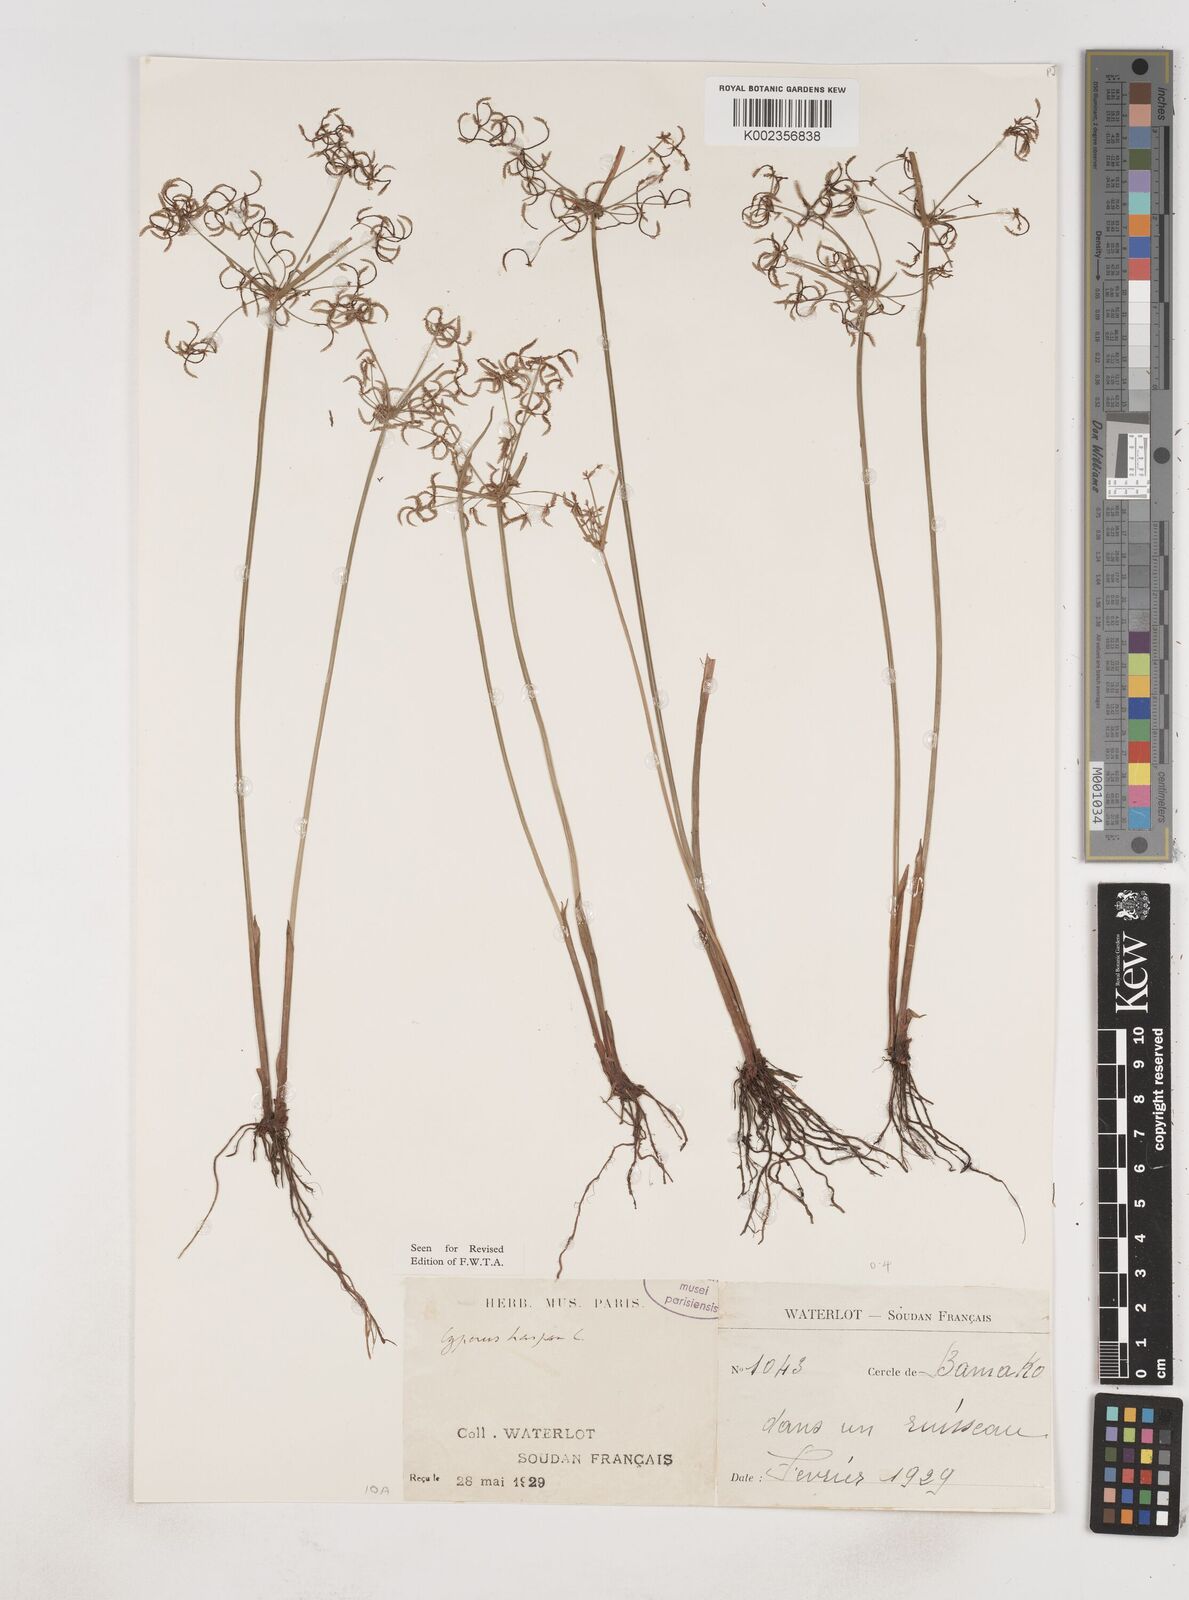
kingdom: Plantae
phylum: Tracheophyta
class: Liliopsida
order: Poales
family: Cyperaceae
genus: Cyperus
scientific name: Cyperus haspan
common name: Haspan flatsedge
